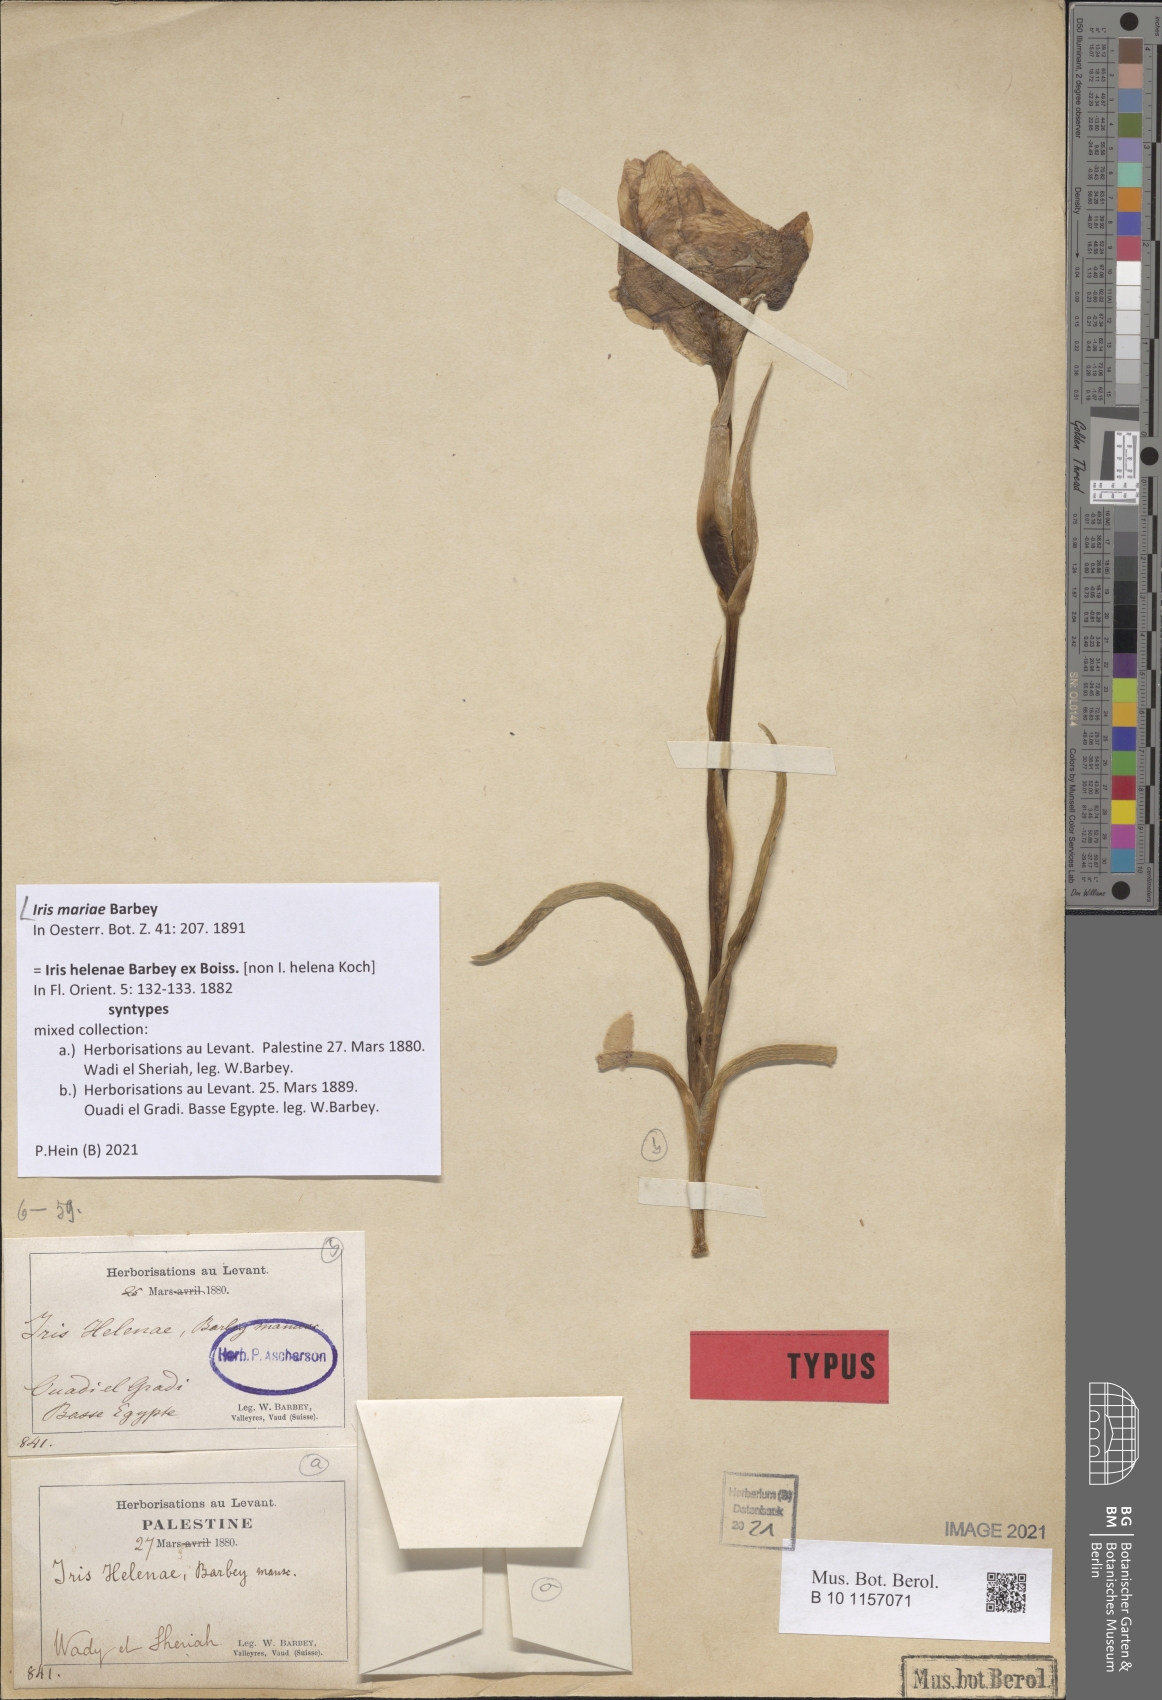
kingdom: Plantae
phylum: Tracheophyta
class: Liliopsida
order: Asparagales
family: Iridaceae
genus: Iris
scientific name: Iris mariae
